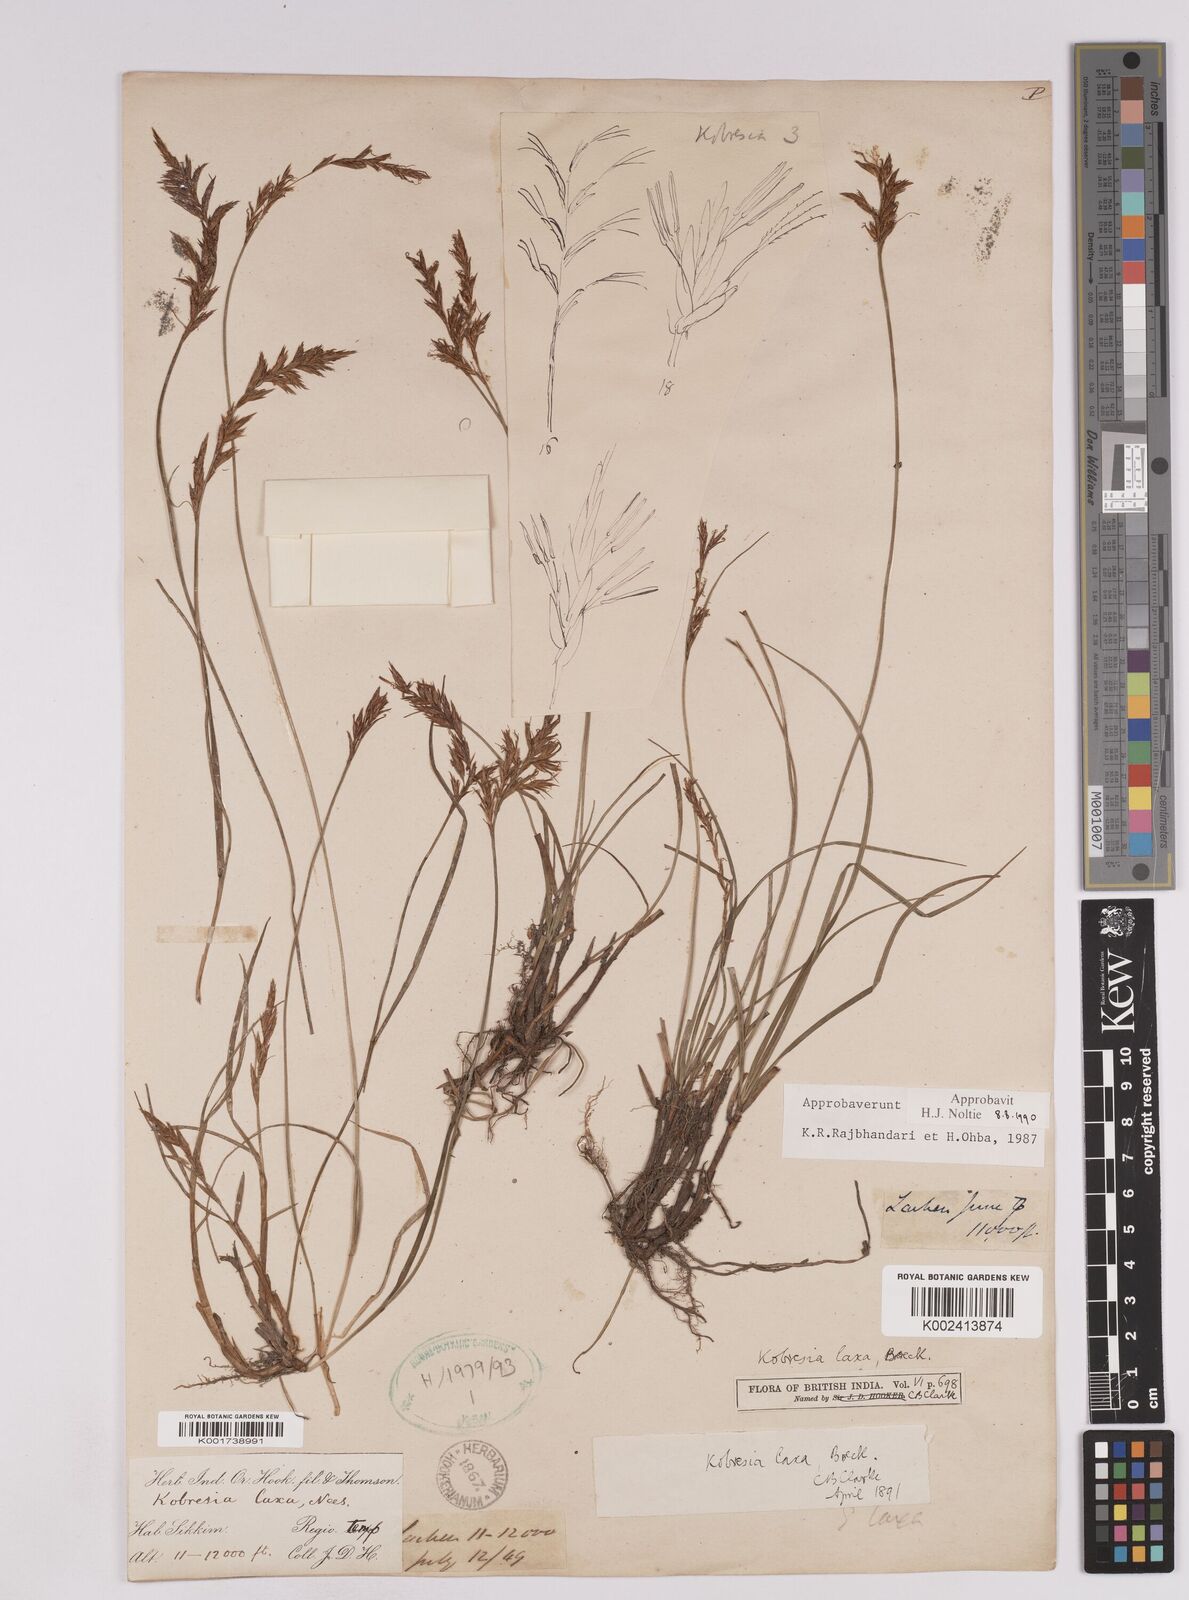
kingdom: Plantae
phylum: Tracheophyta
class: Liliopsida
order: Poales
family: Cyperaceae
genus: Carex
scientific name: Carex pseudolaxa
